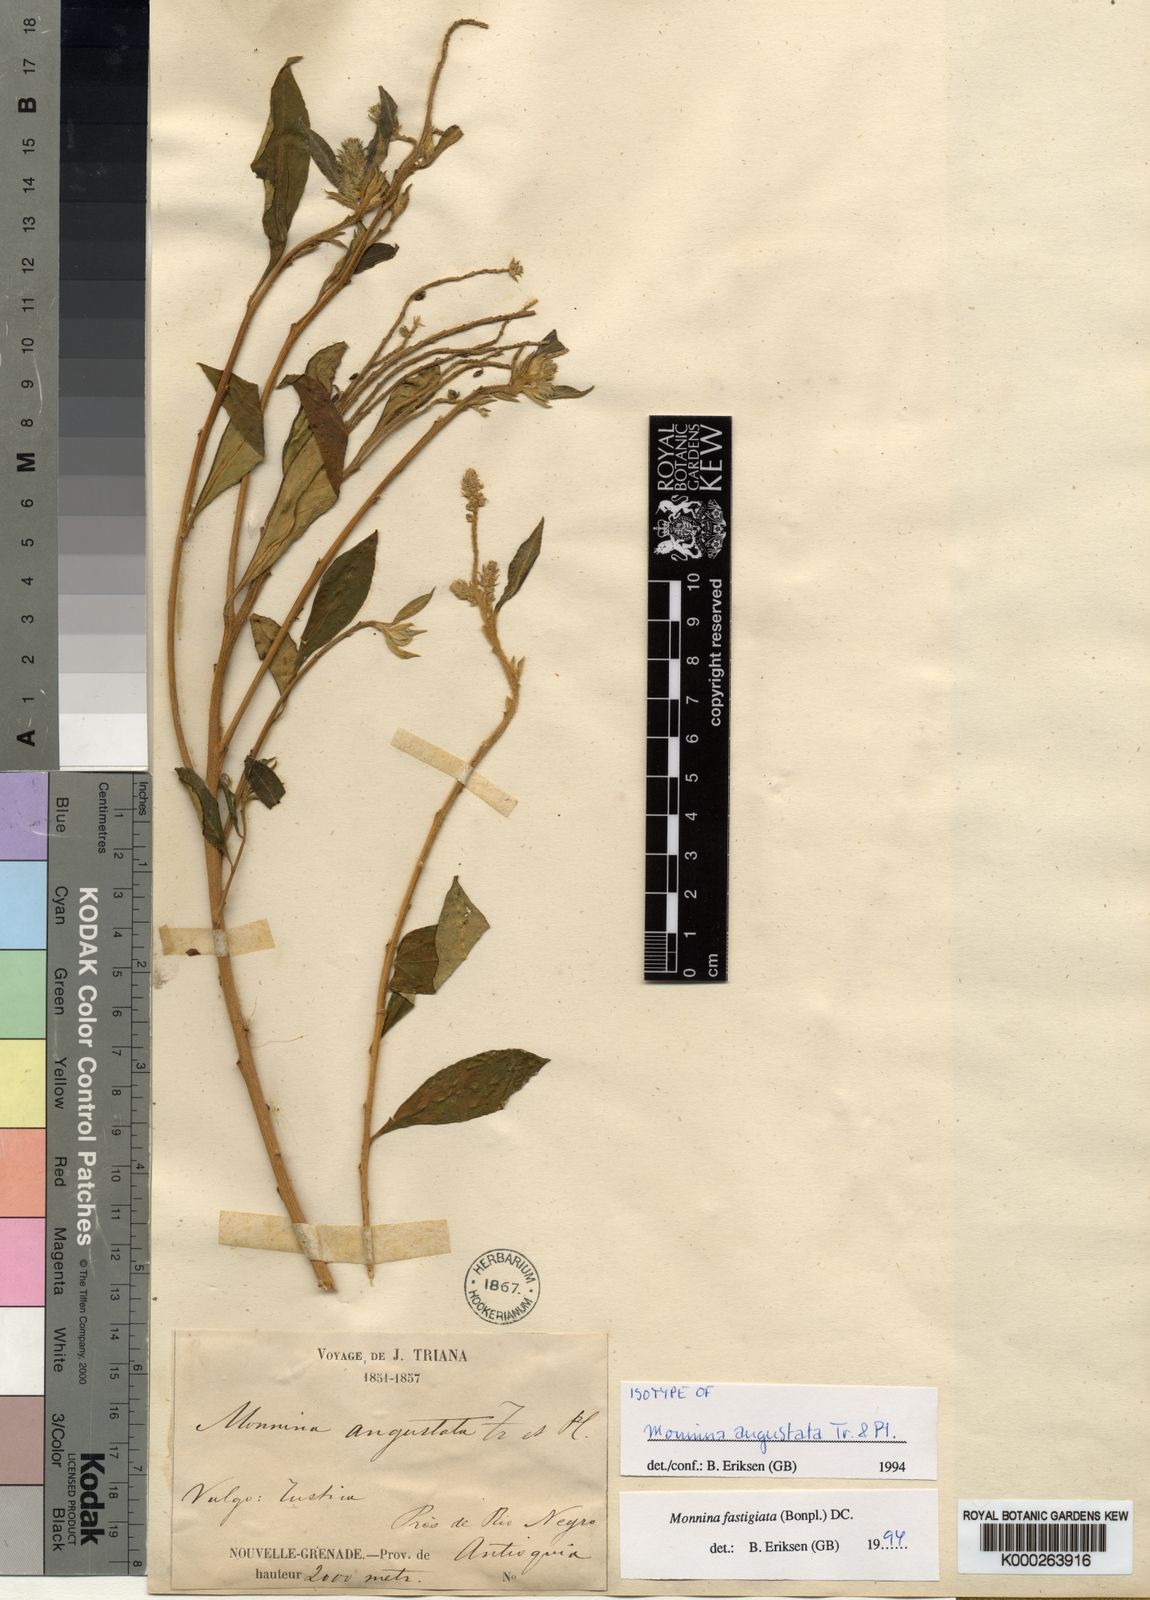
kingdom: Plantae
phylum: Tracheophyta
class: Magnoliopsida
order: Fabales
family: Polygalaceae
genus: Monnina
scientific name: Monnina fastigiata
